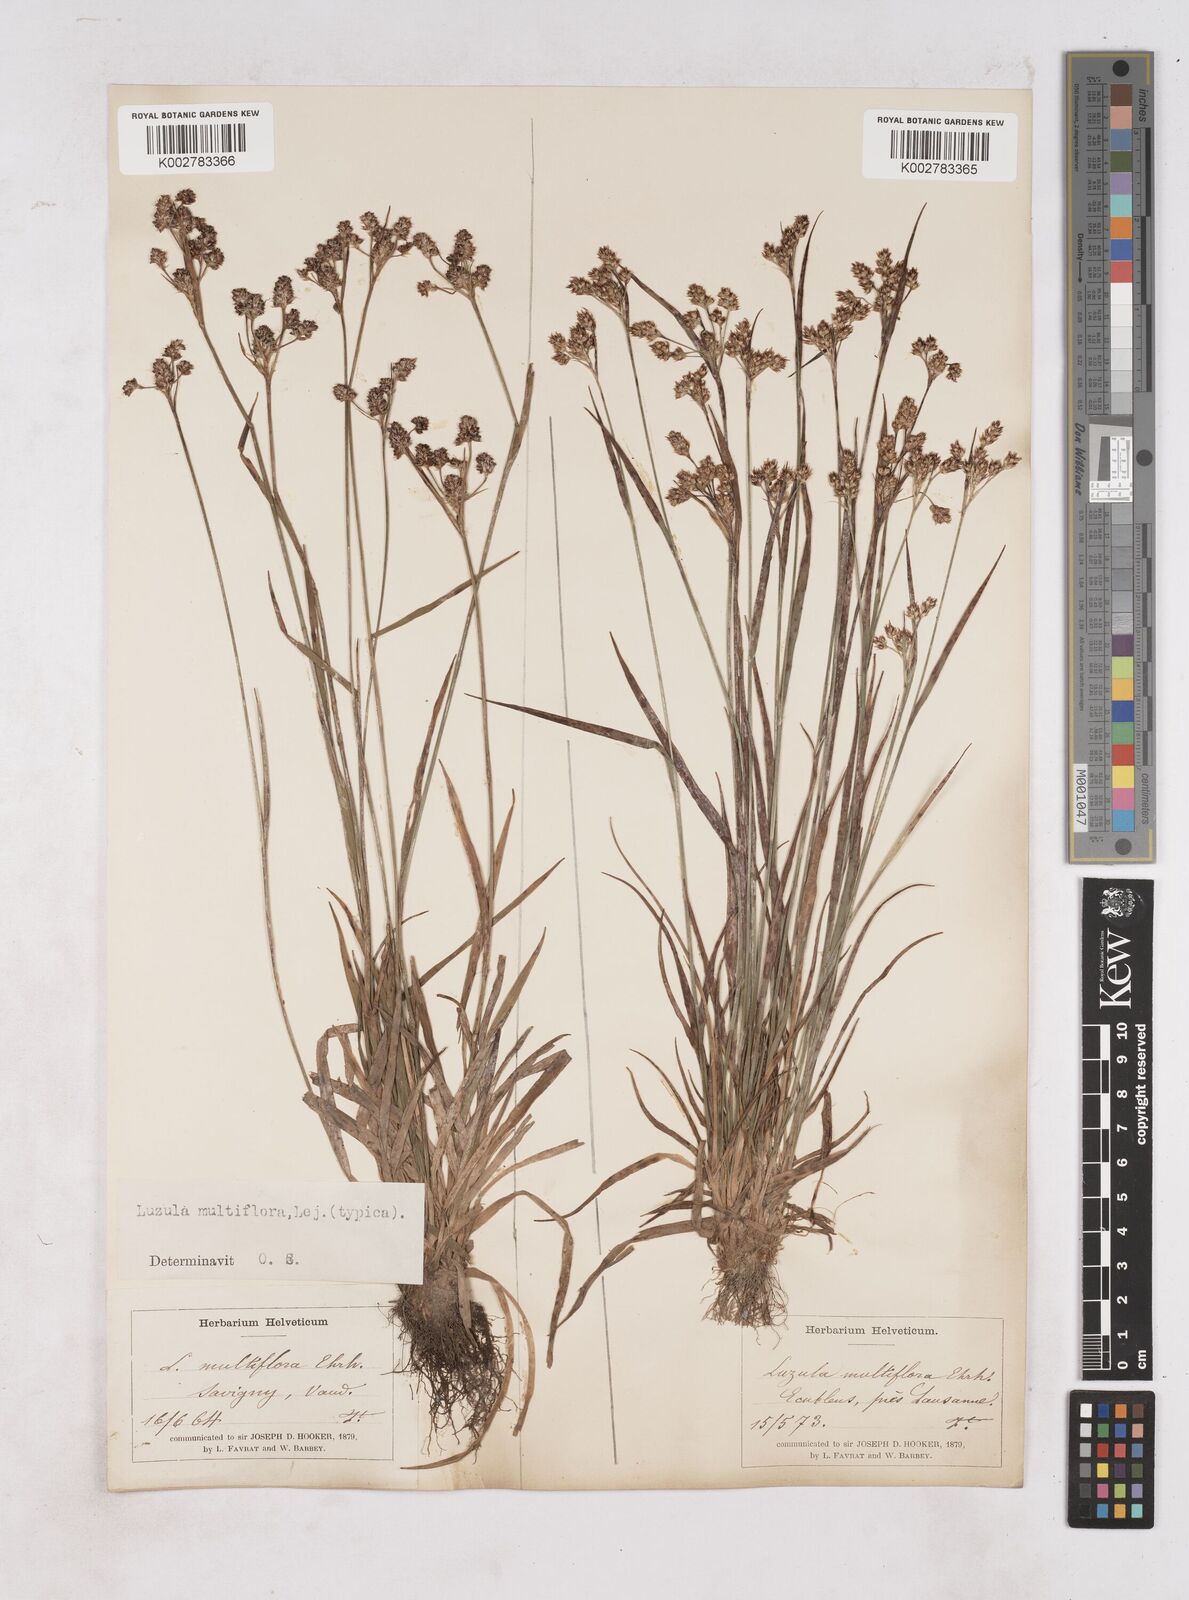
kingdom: Plantae
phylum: Tracheophyta
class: Liliopsida
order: Poales
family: Juncaceae
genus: Luzula
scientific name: Luzula multiflora
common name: Heath wood-rush
